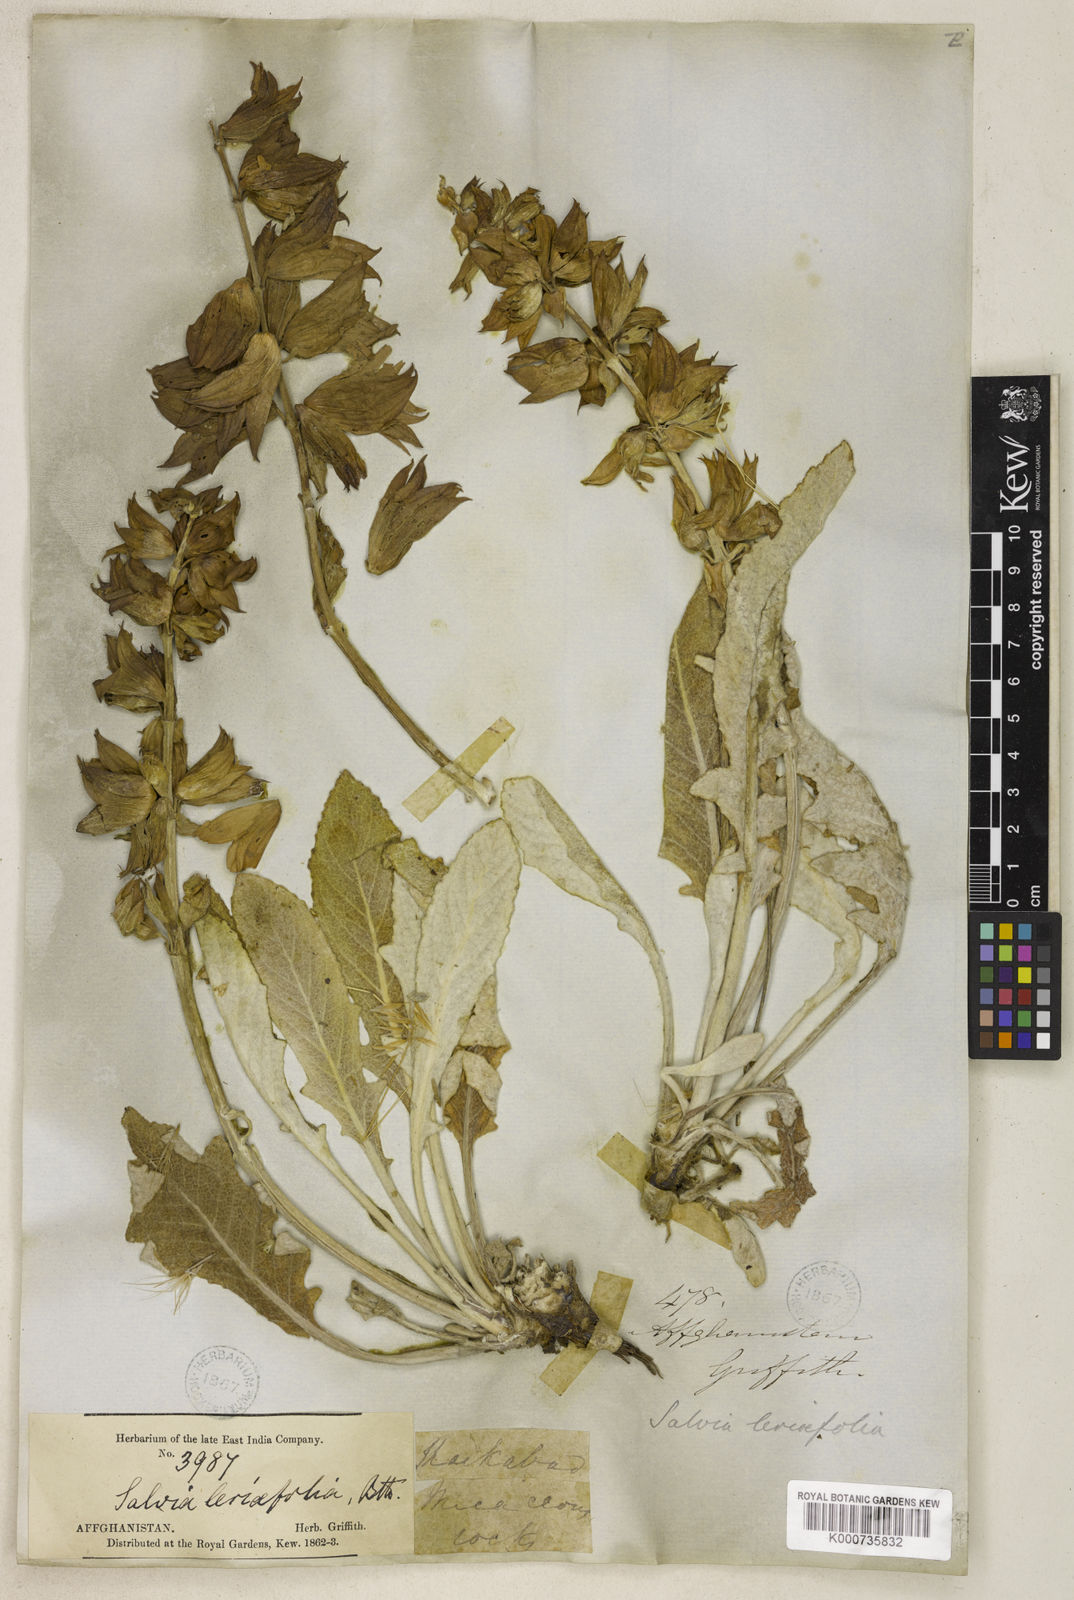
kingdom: Plantae
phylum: Tracheophyta
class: Magnoliopsida
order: Lamiales
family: Lamiaceae
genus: Salvia
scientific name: Salvia leriifolia
